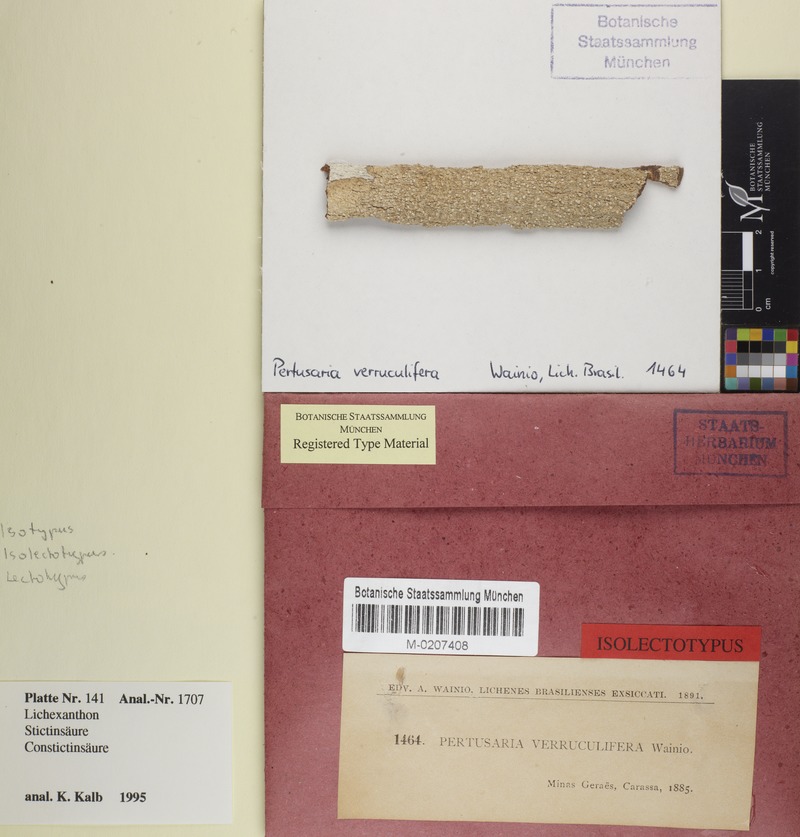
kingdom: Fungi
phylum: Ascomycota
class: Lecanoromycetes
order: Pertusariales
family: Pertusariaceae
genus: Pertusaria
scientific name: Pertusaria verruculifera
